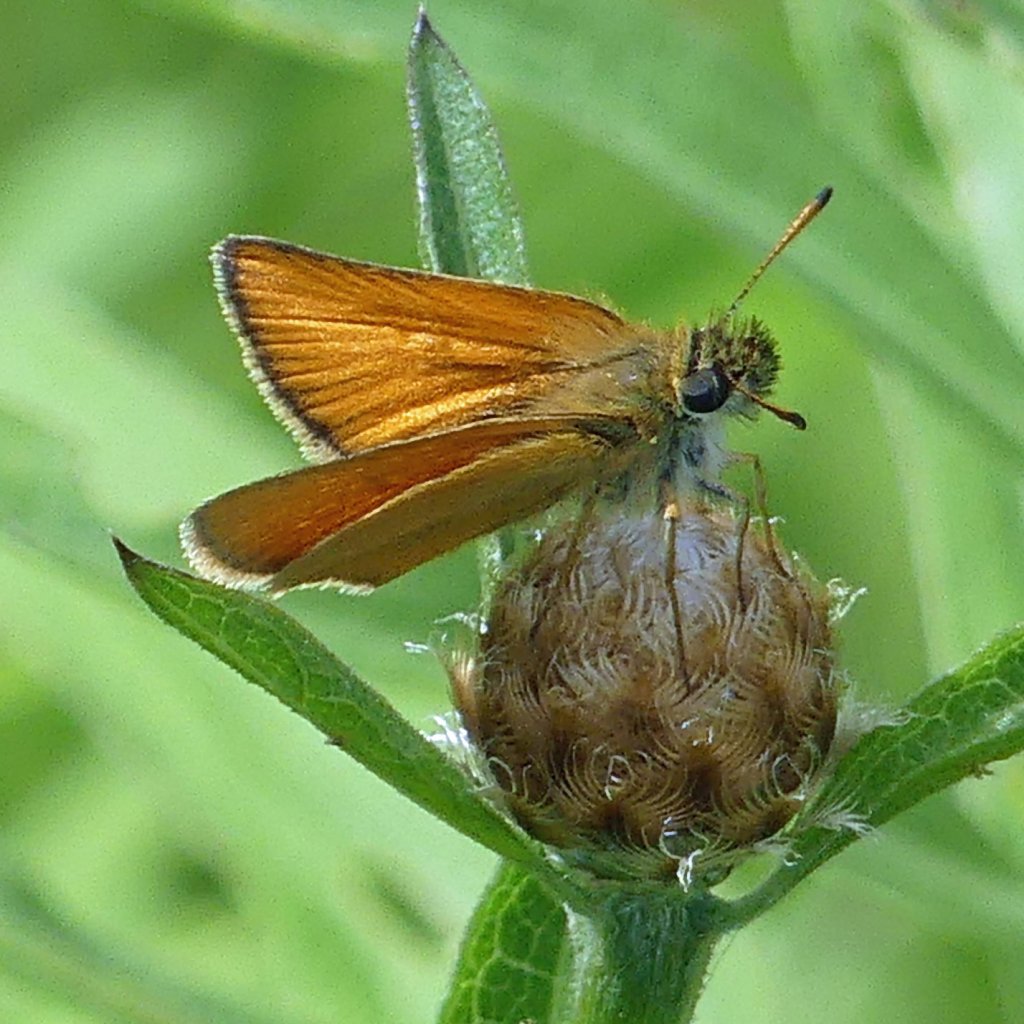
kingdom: Animalia
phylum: Arthropoda
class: Insecta
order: Lepidoptera
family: Hesperiidae
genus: Thymelicus
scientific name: Thymelicus lineola
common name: European Skipper
